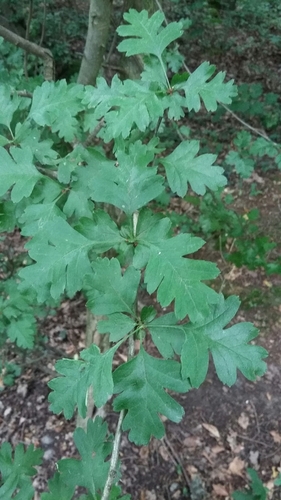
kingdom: Plantae
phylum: Tracheophyta
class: Magnoliopsida
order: Rosales
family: Rosaceae
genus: Crataegus
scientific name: Crataegus monogyna
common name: Hawthorn
